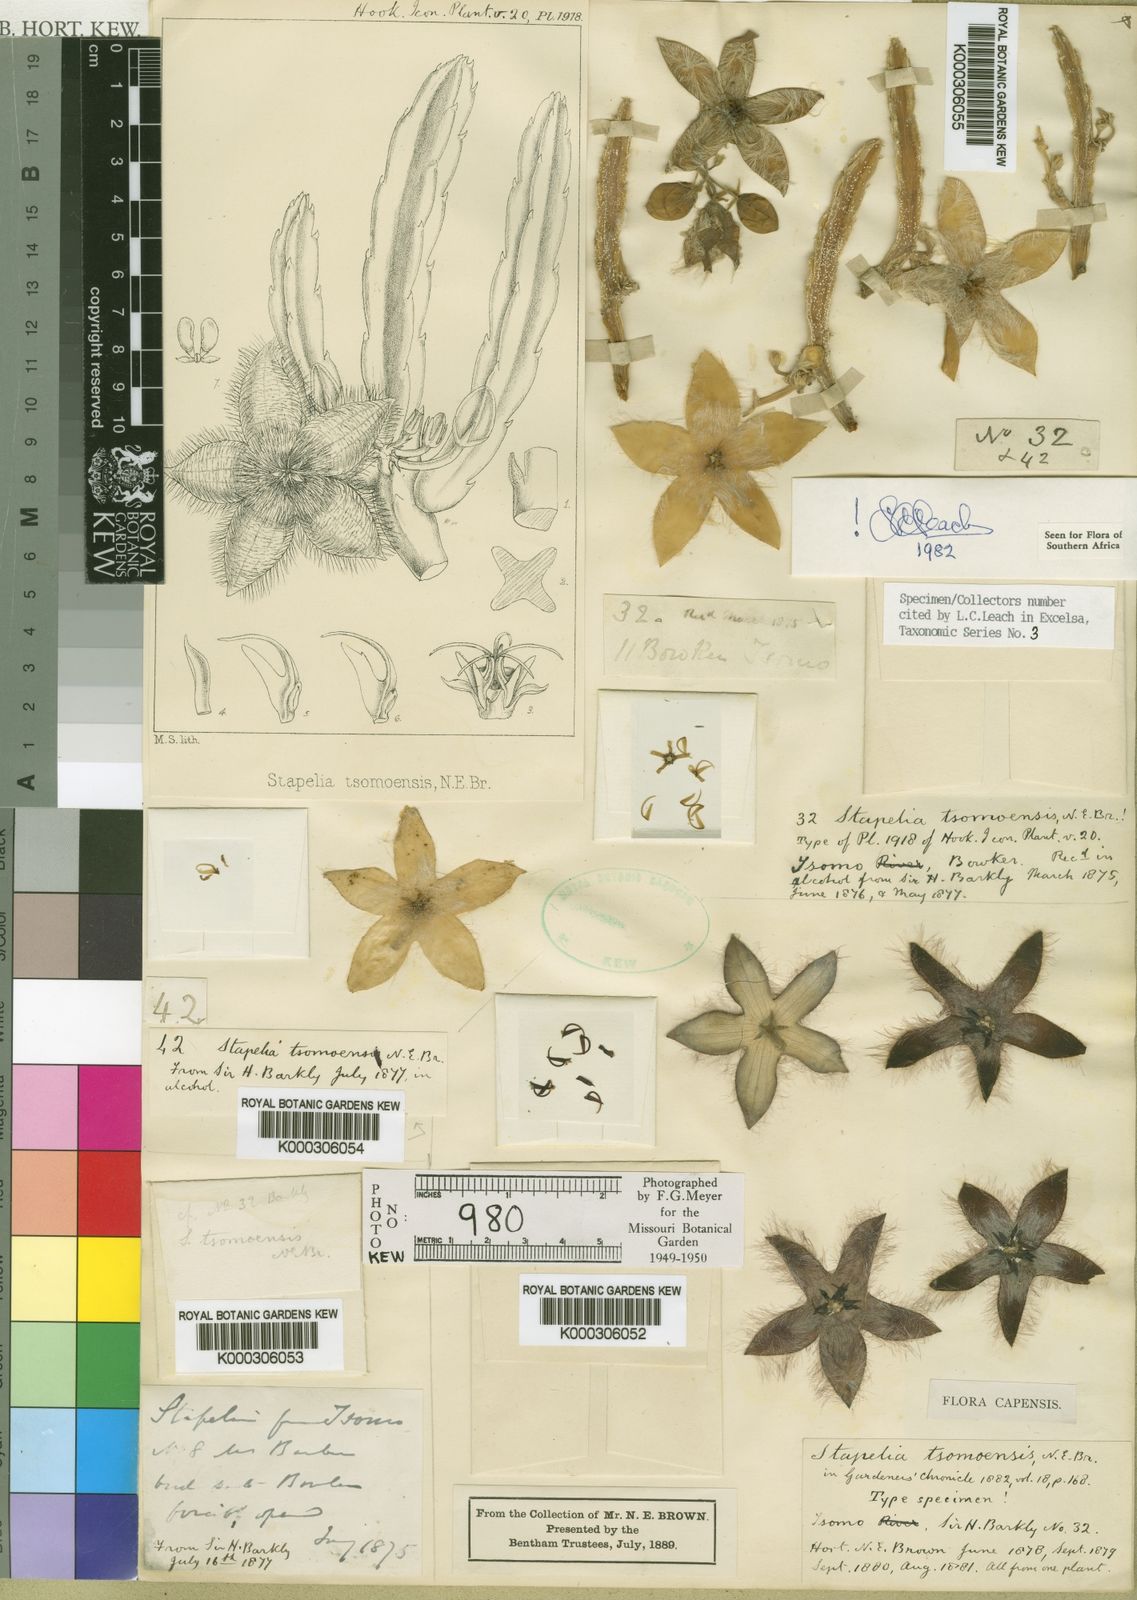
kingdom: Plantae
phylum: Tracheophyta
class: Magnoliopsida
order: Gentianales
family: Apocynaceae
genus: Ceropegia
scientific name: Ceropegia pulvinata
